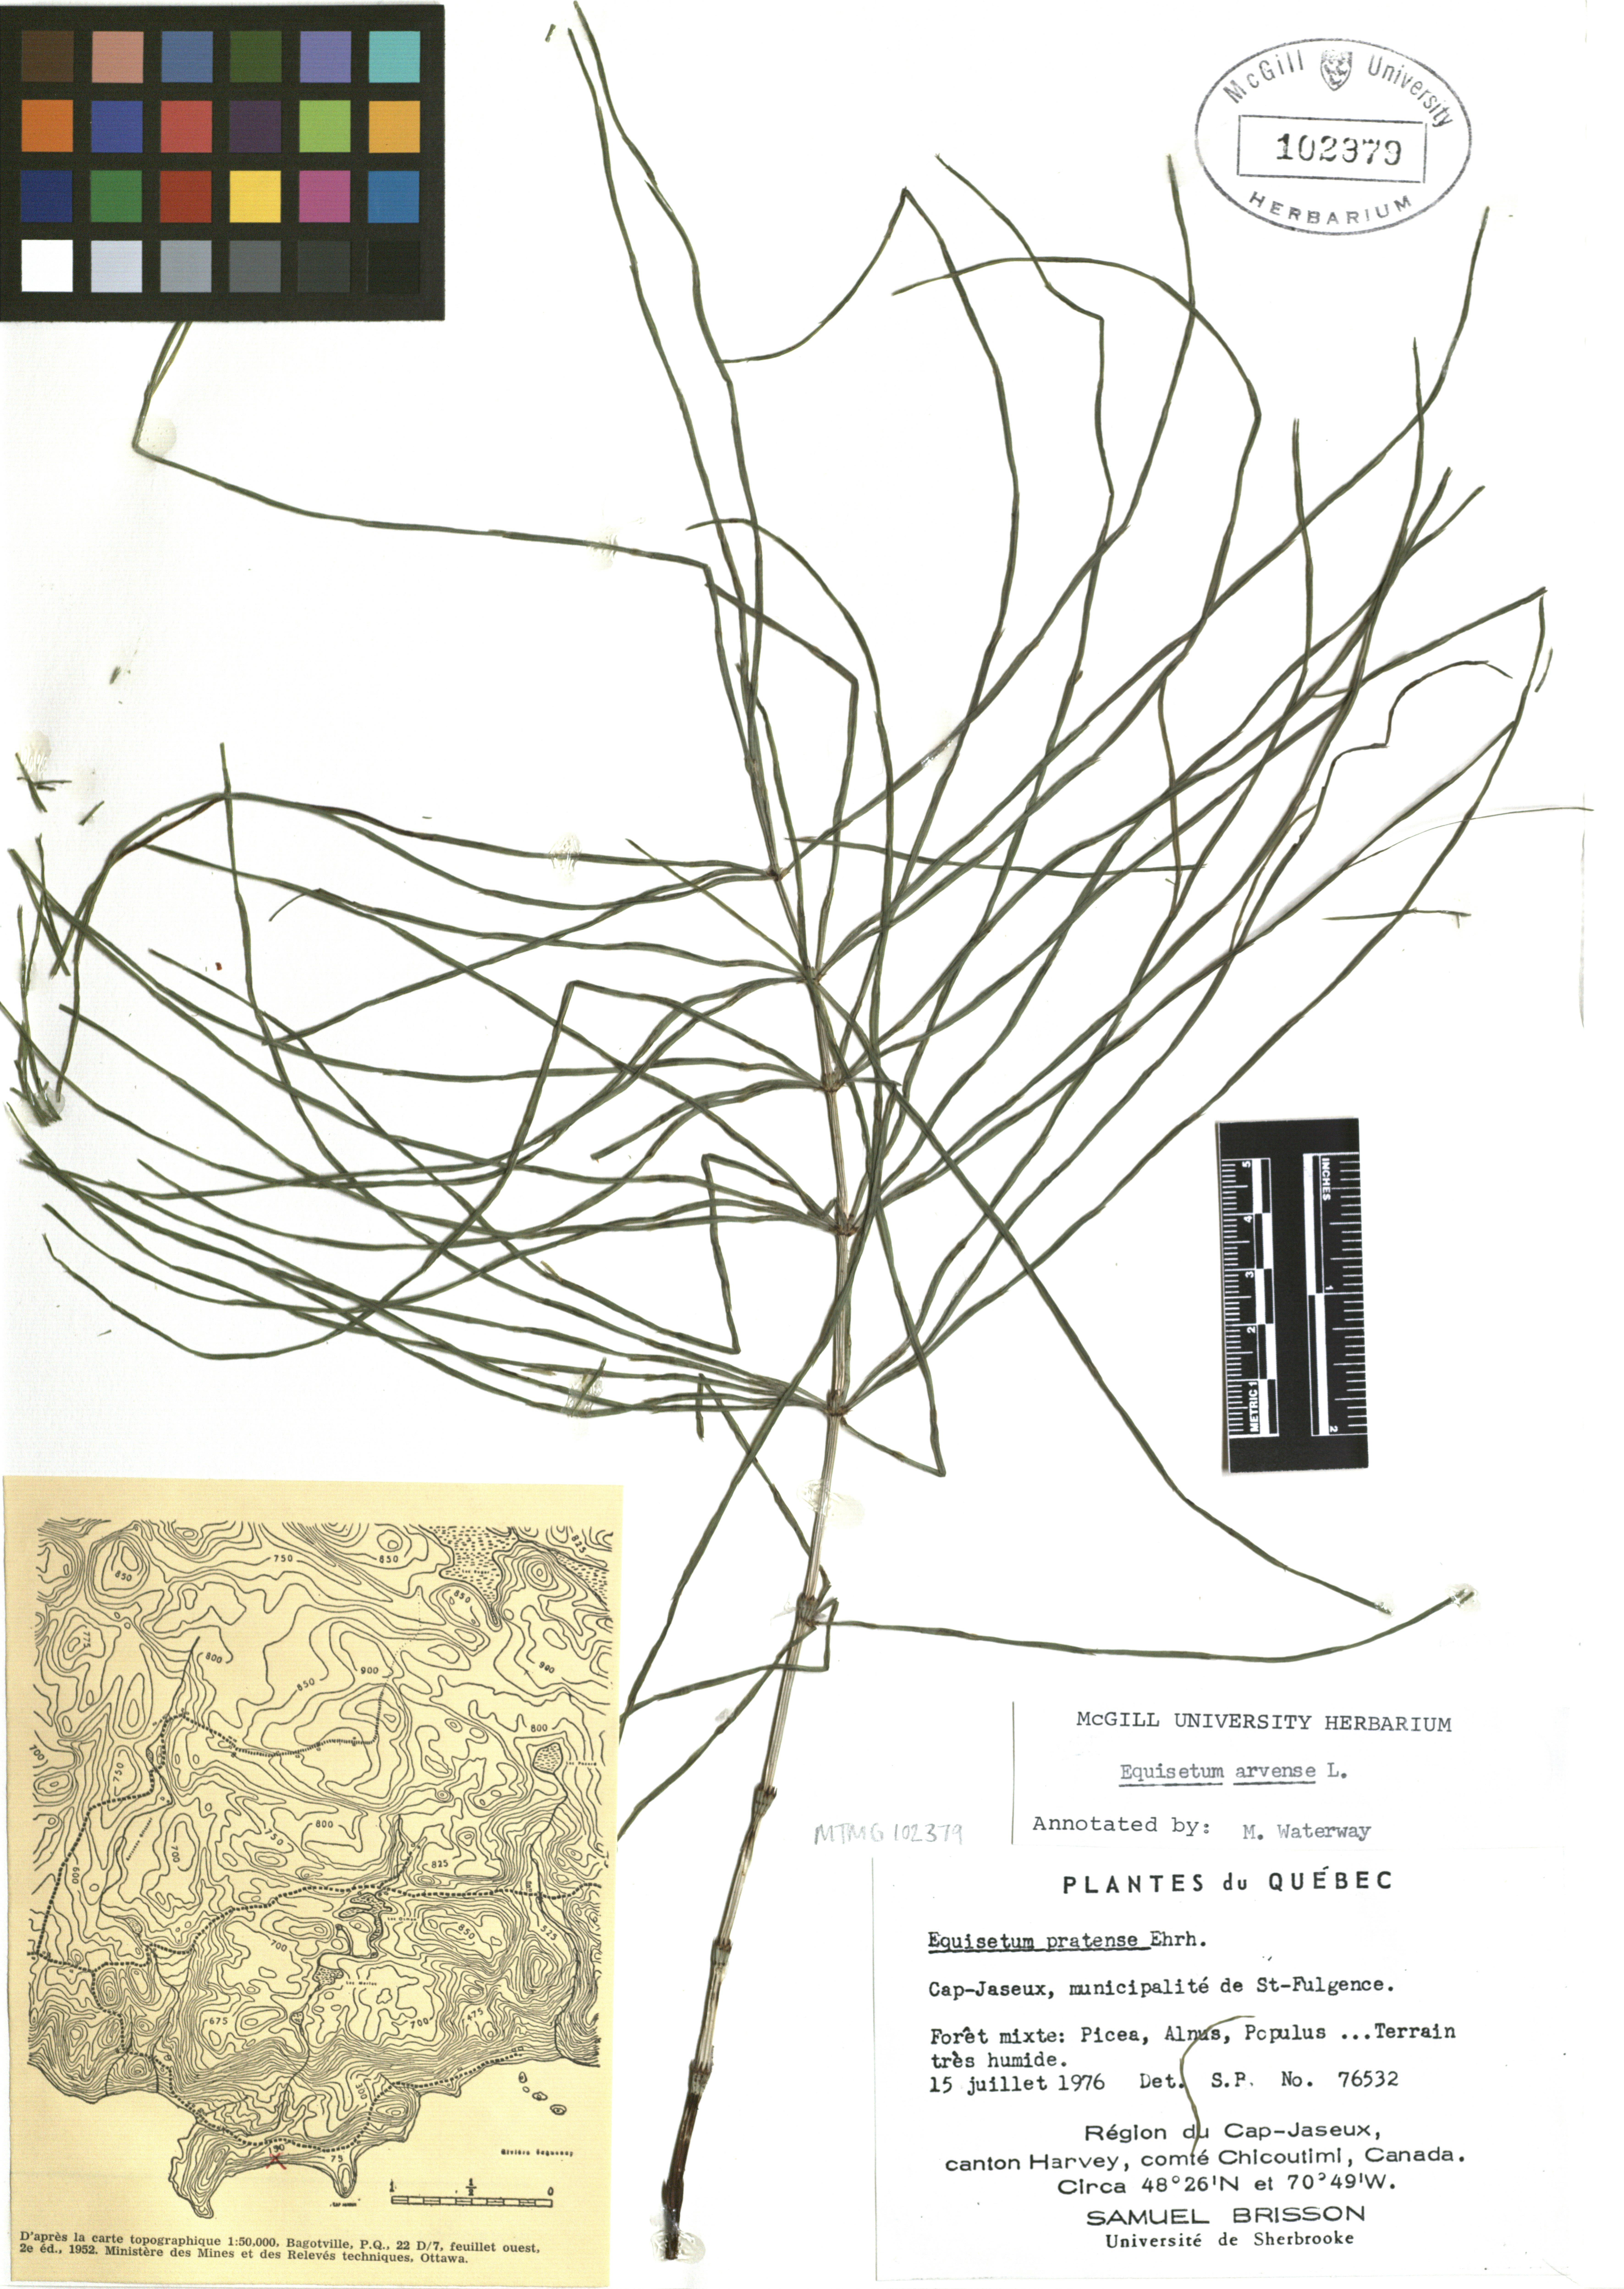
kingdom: Plantae
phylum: Tracheophyta
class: Polypodiopsida
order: Equisetales
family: Equisetaceae
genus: Equisetum
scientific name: Equisetum arvense
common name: Field horsetail
